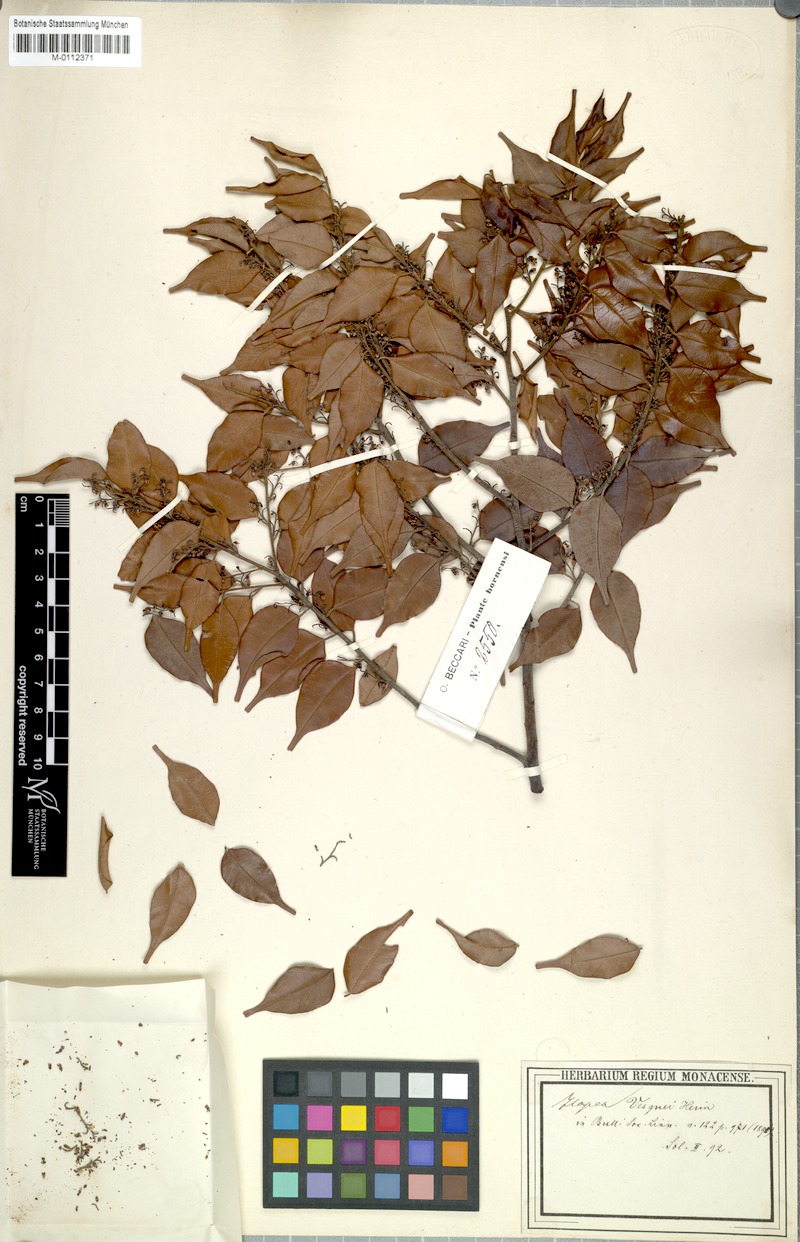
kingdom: Plantae
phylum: Tracheophyta
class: Magnoliopsida
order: Malvales
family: Dipterocarpaceae
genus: Hopea
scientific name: Hopea vesquei
